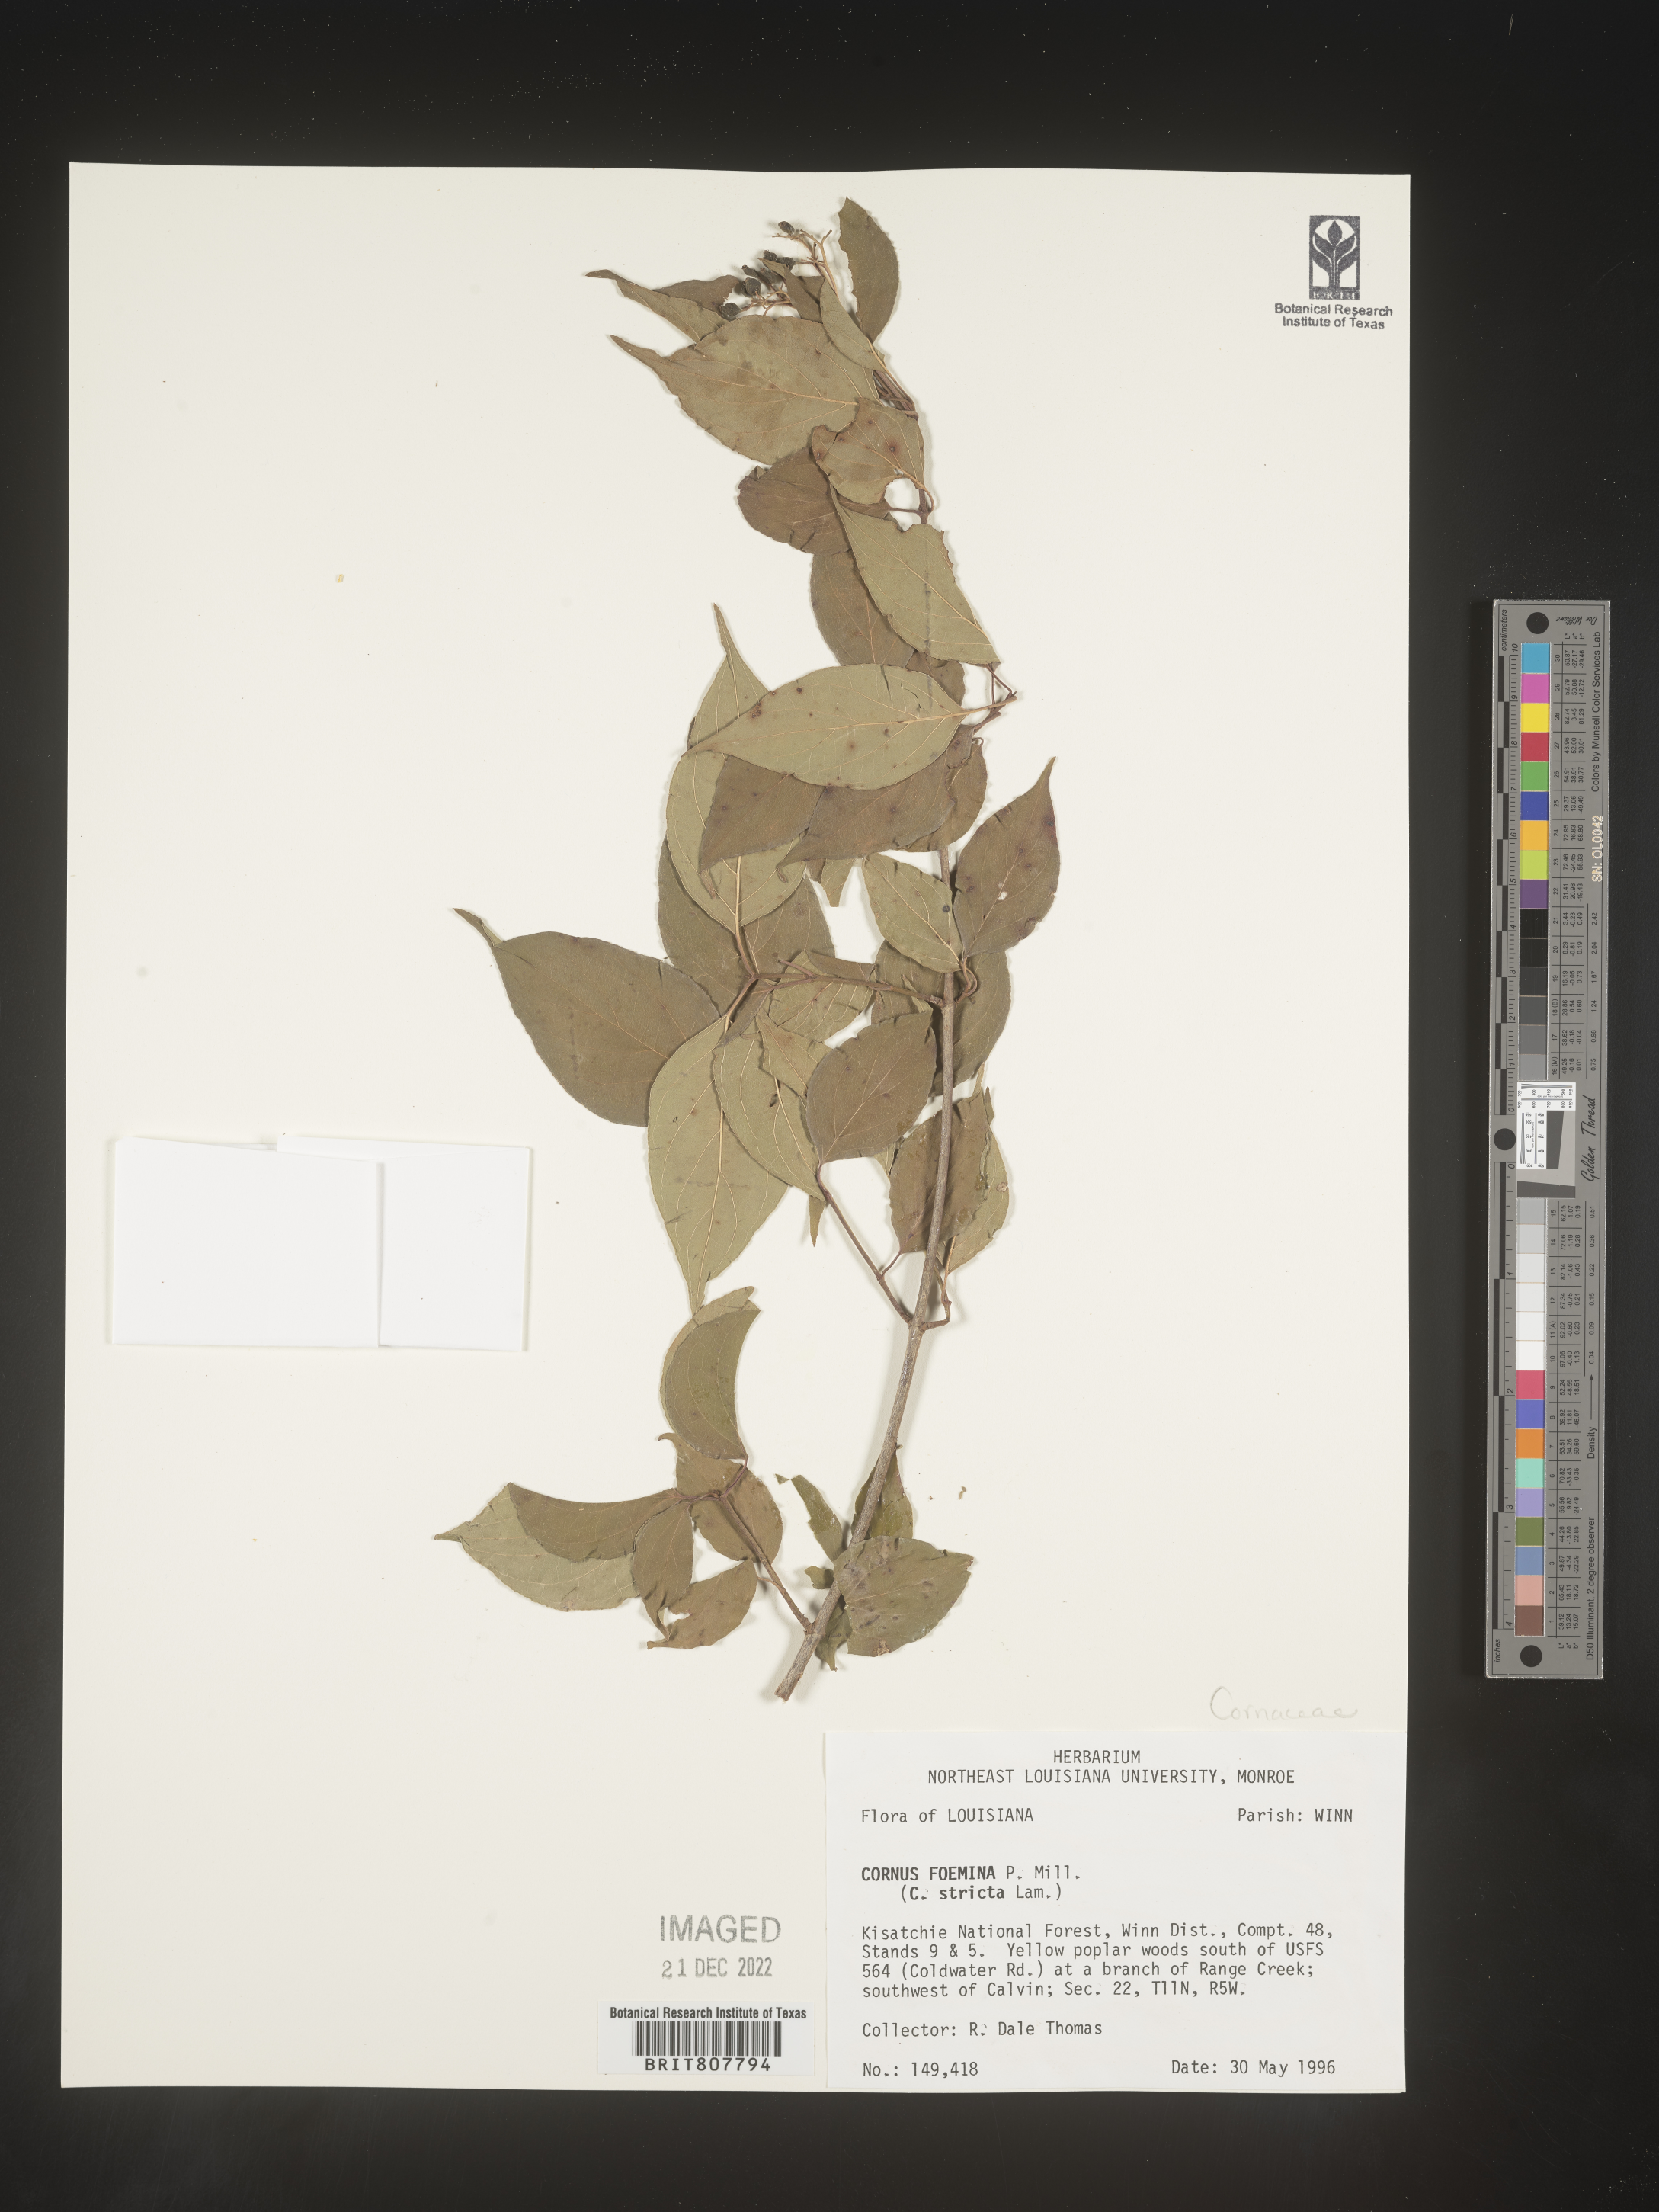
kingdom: Plantae
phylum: Tracheophyta
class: Magnoliopsida
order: Cornales
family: Cornaceae
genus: Cornus
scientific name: Cornus foemina
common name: Swamp dogwood
